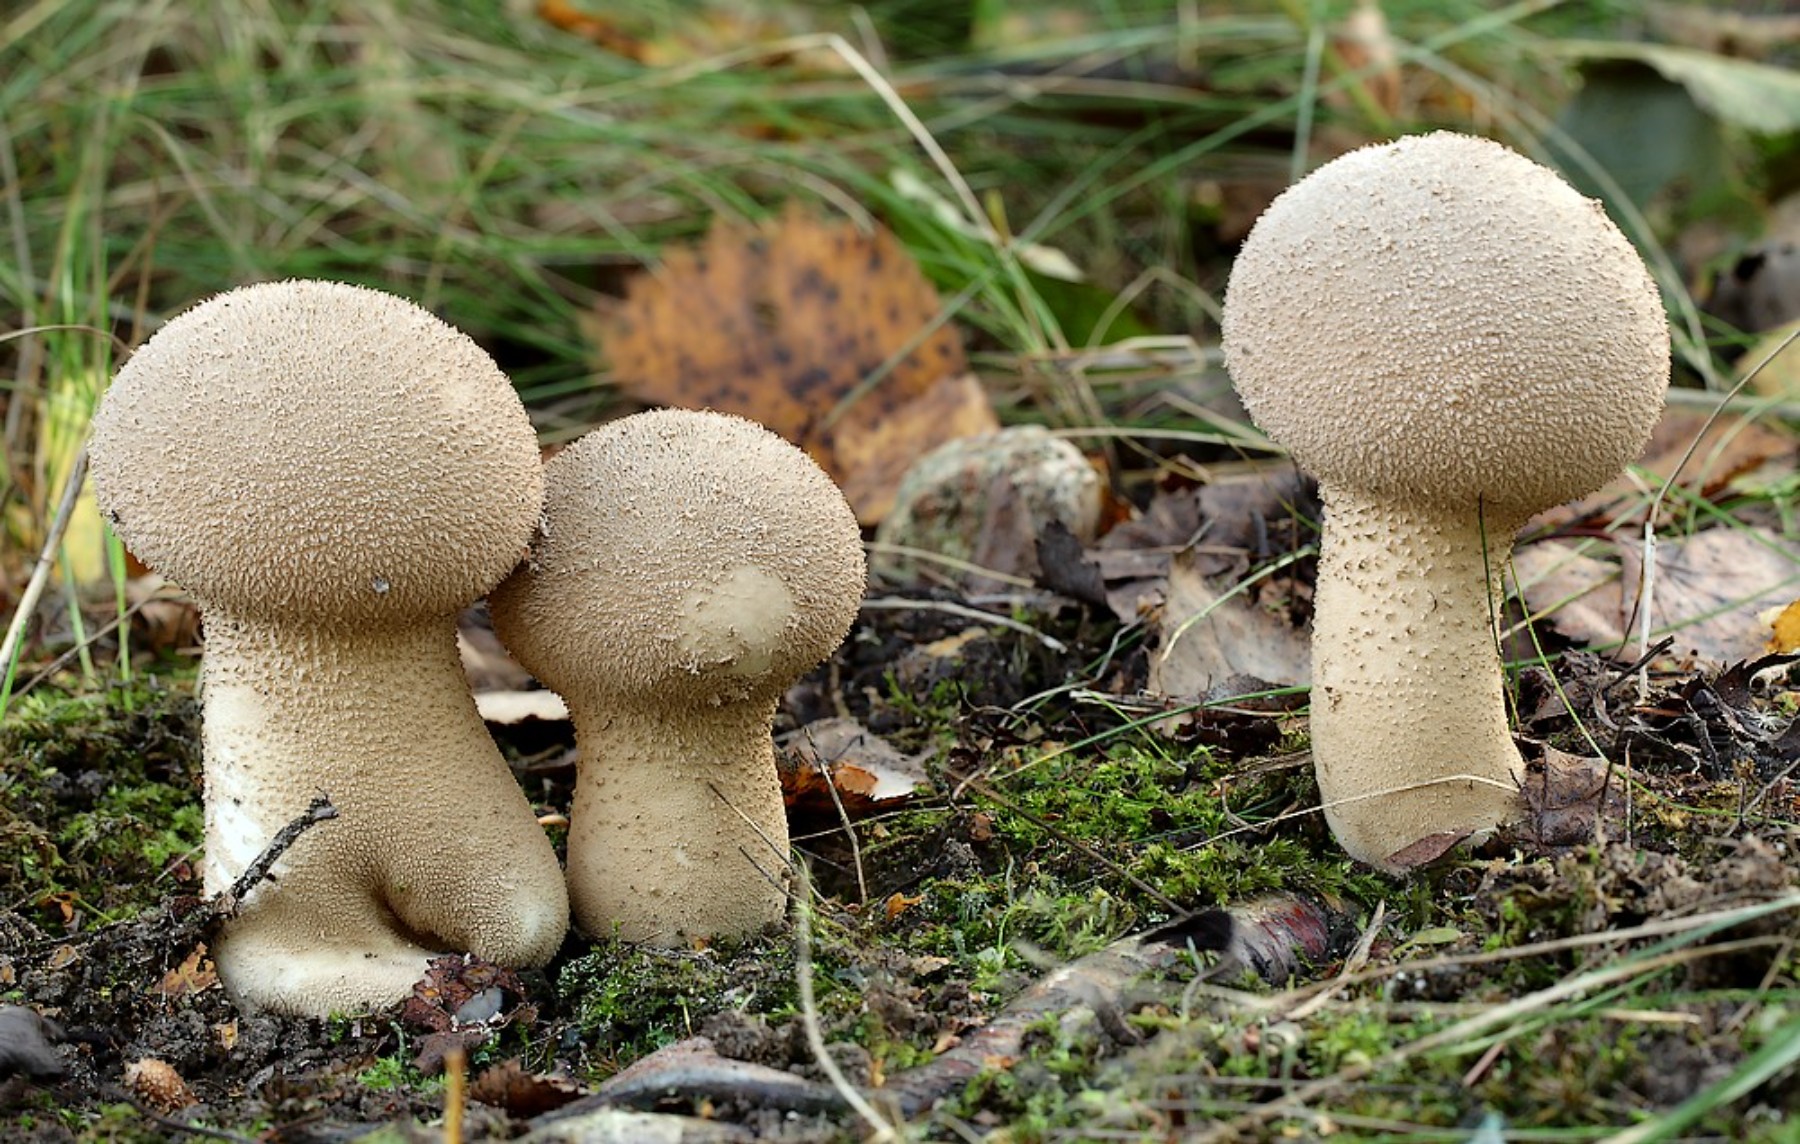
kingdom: Fungi
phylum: Basidiomycota
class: Agaricomycetes
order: Agaricales
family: Lycoperdaceae
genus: Lycoperdon
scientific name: Lycoperdon excipuliforme
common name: højstokket støvbold
